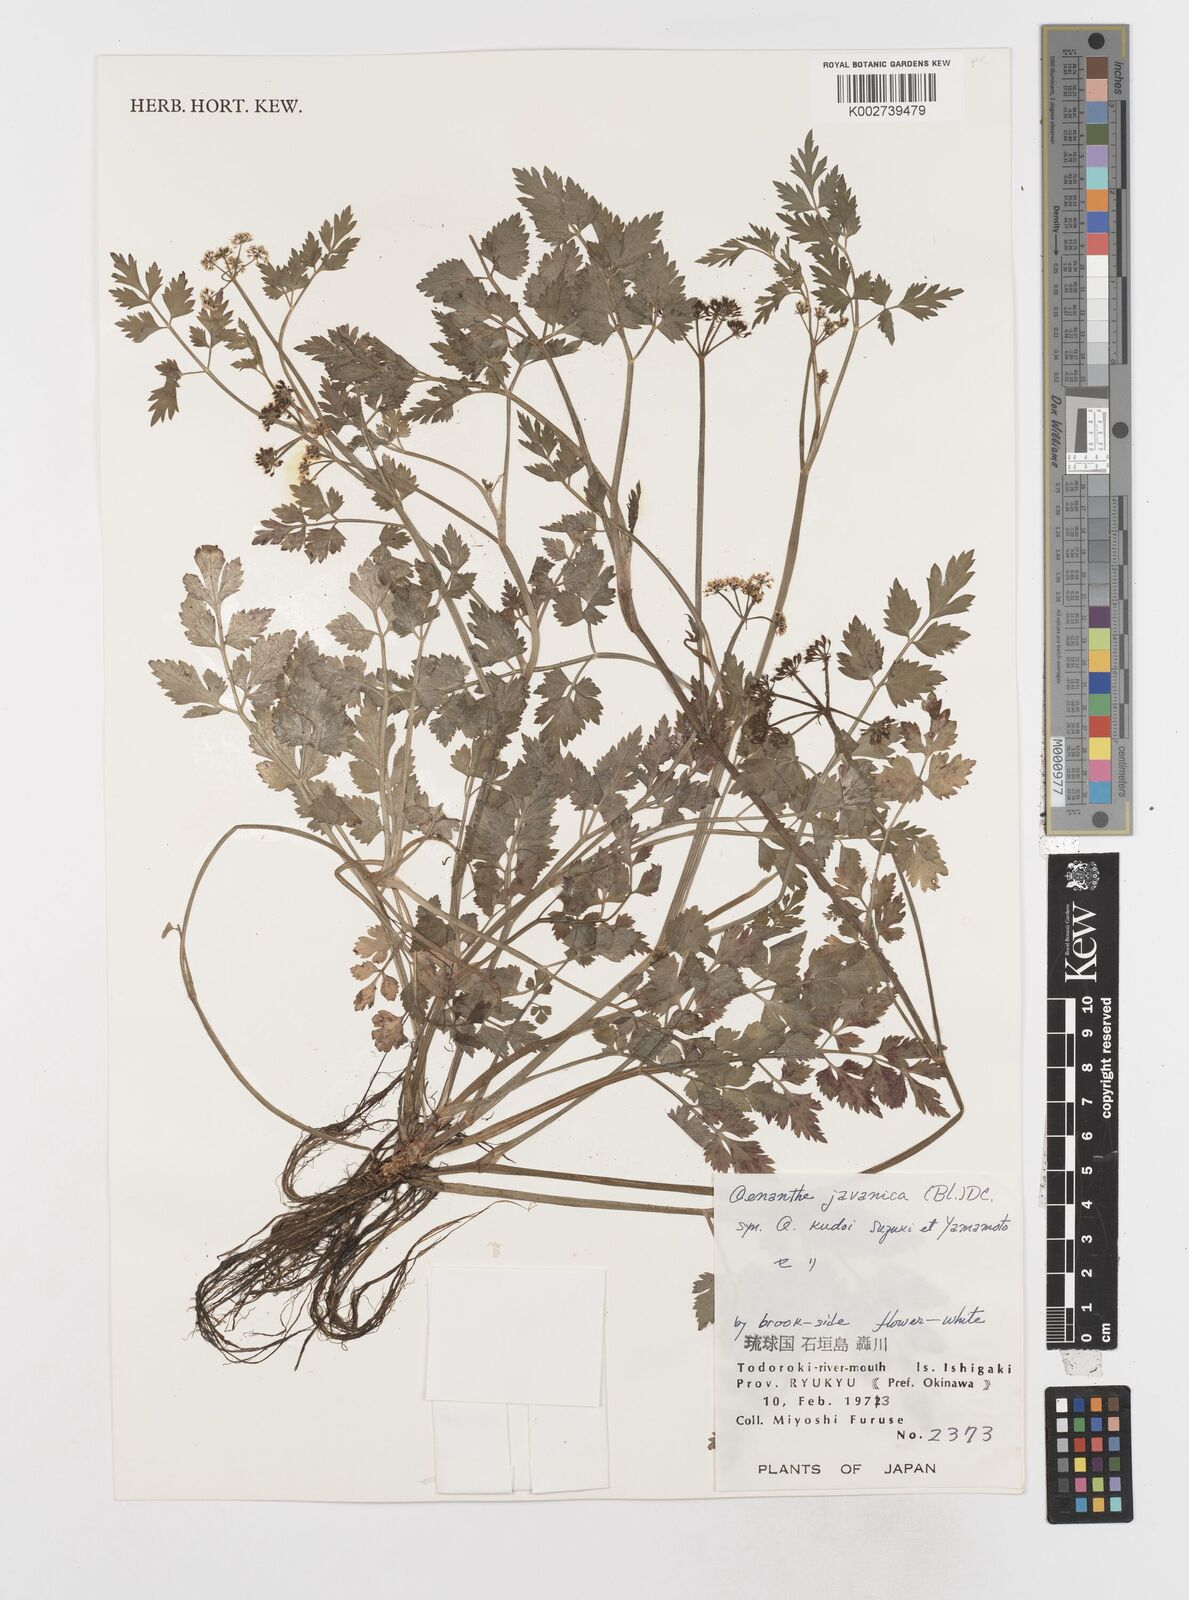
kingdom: Plantae
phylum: Tracheophyta
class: Magnoliopsida
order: Apiales
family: Apiaceae
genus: Oenanthe
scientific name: Oenanthe javanica
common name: Java water-dropwort
